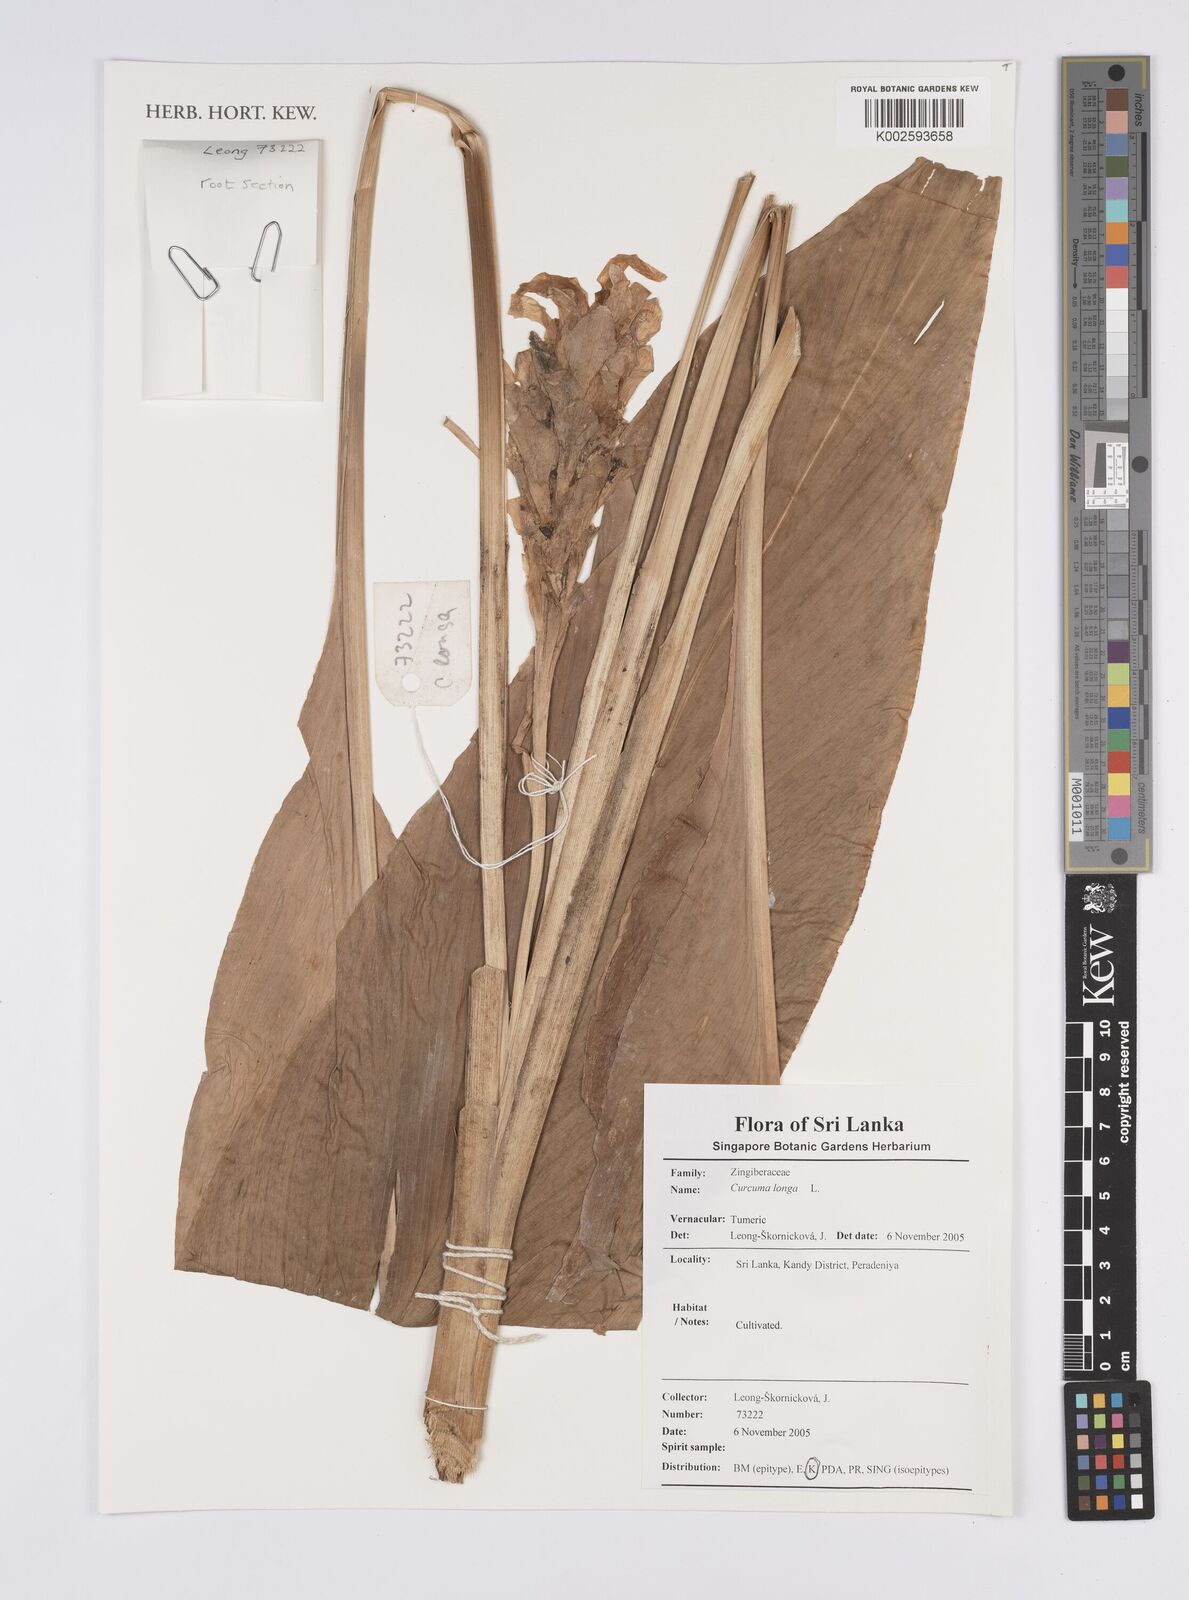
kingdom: Plantae
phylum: Tracheophyta
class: Liliopsida
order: Zingiberales
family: Zingiberaceae
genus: Curcuma
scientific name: Curcuma longa
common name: Turmeric
